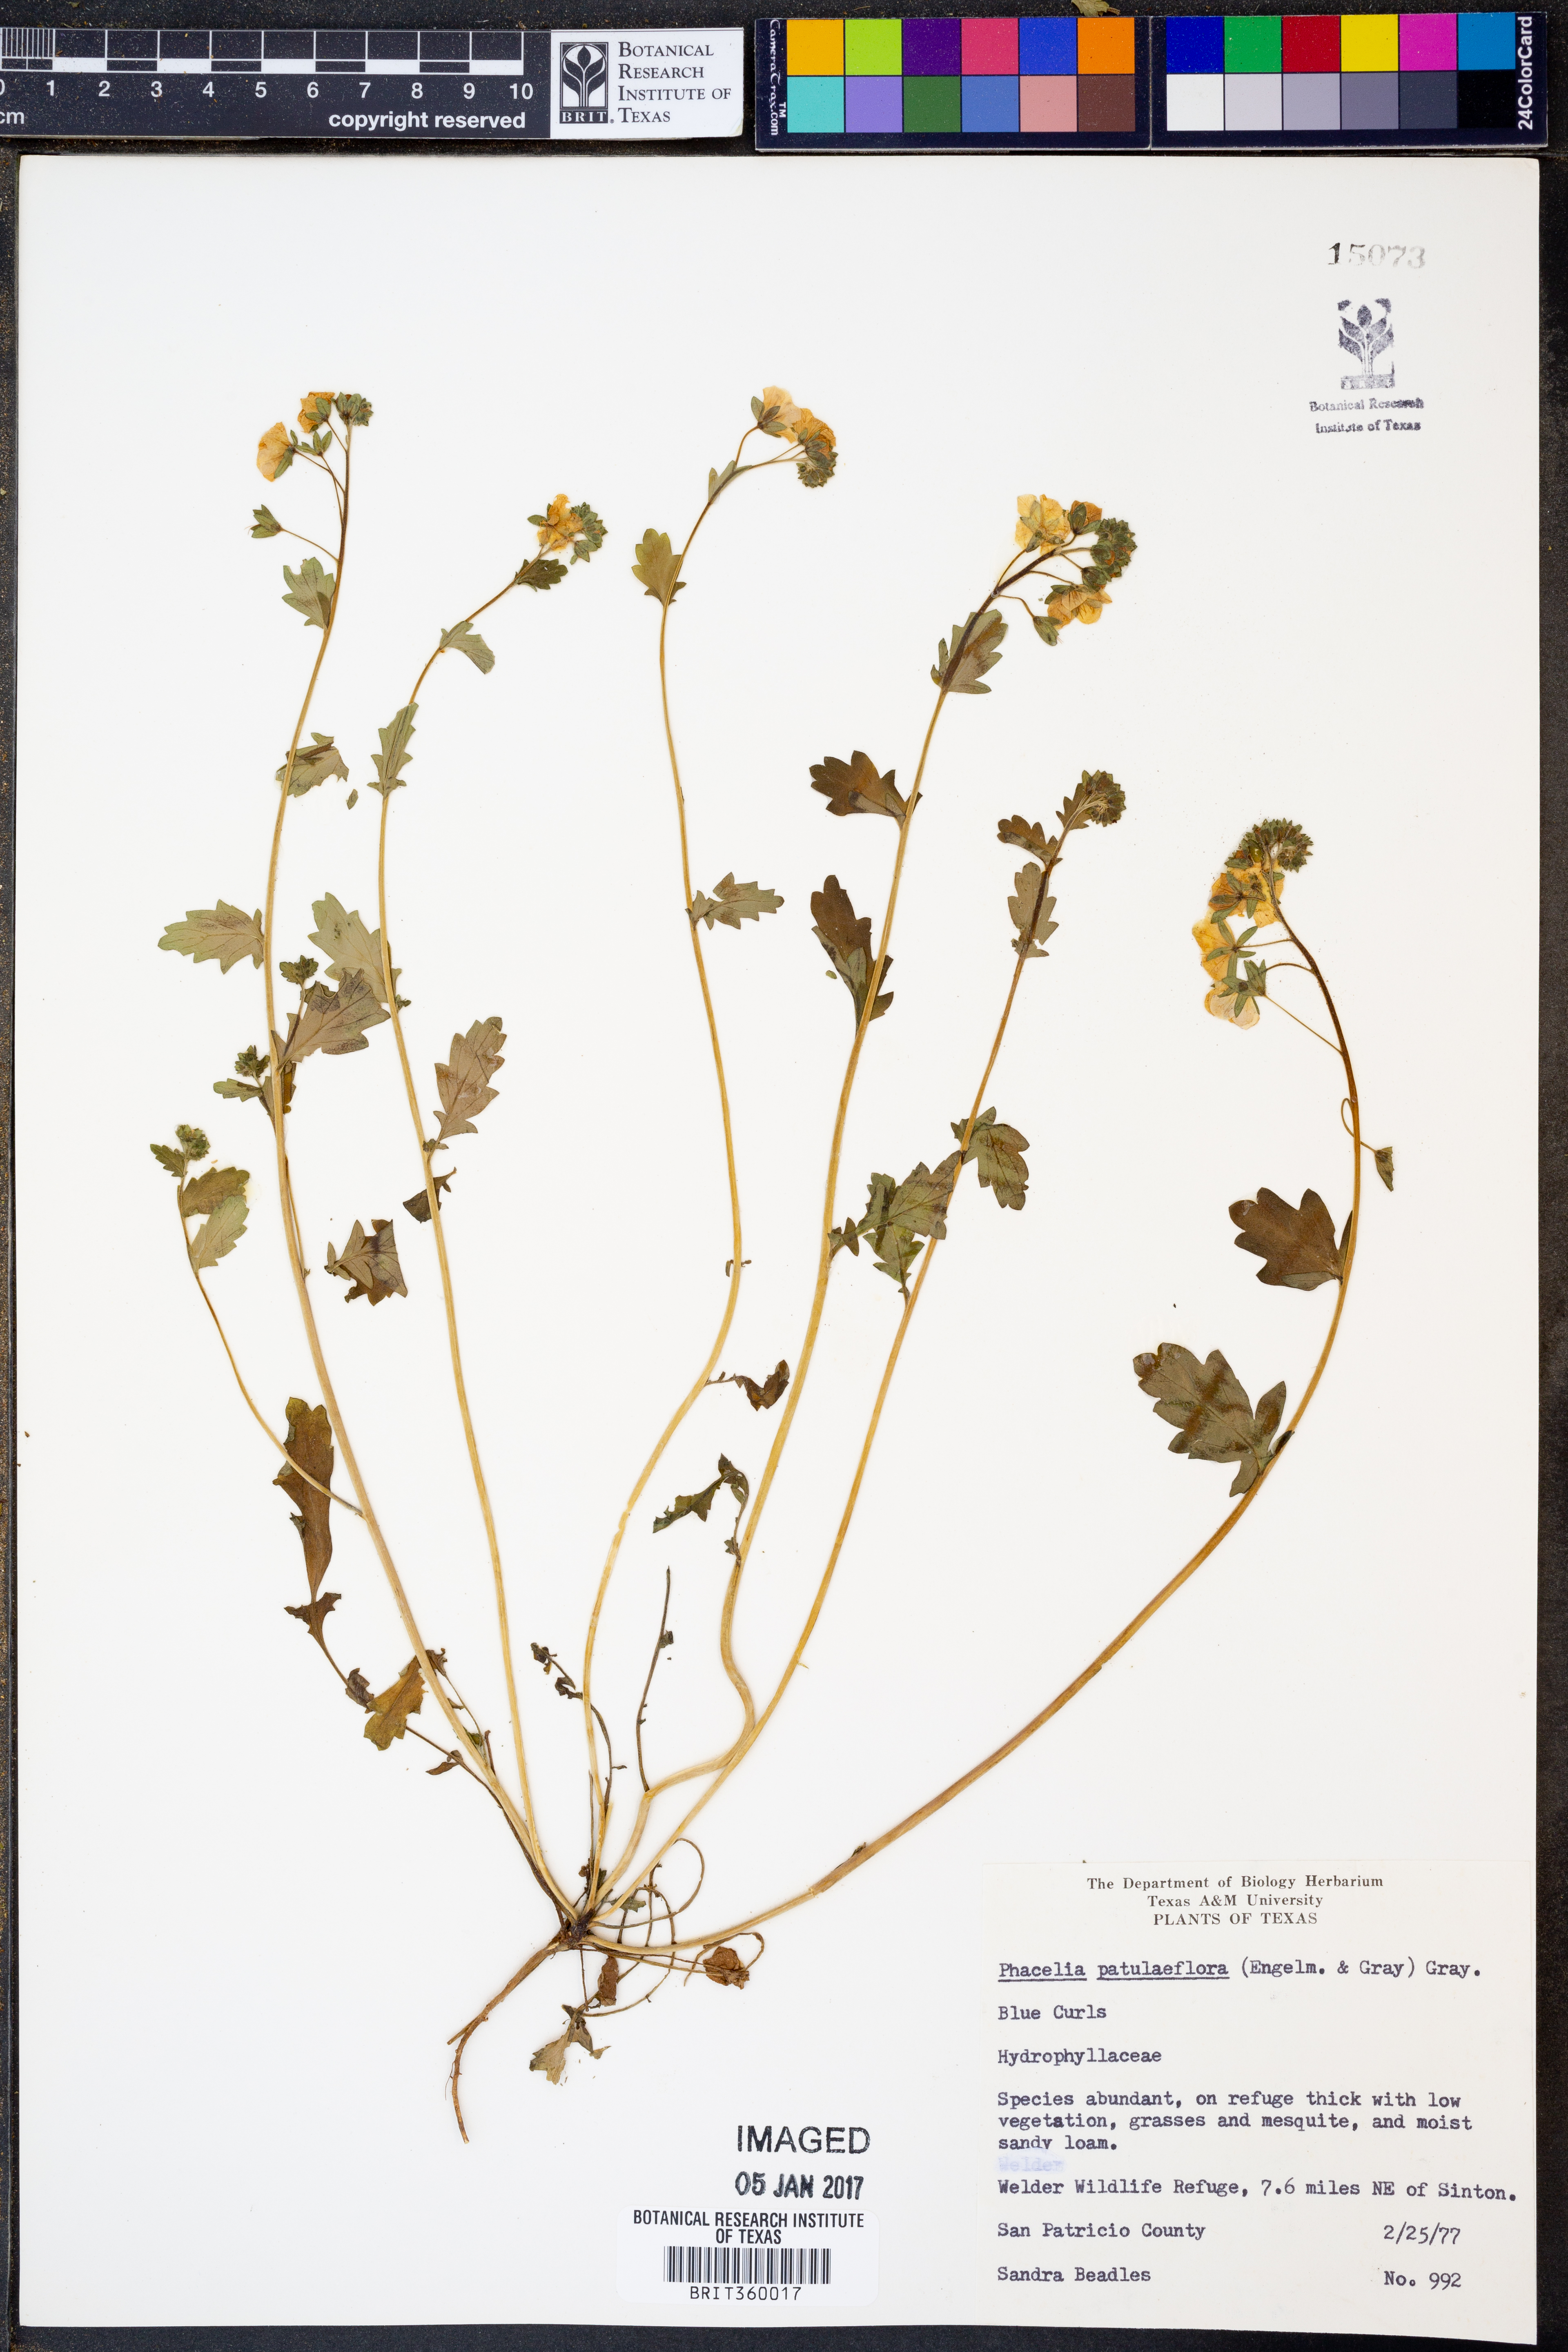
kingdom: Plantae
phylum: Tracheophyta
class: Magnoliopsida
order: Boraginales
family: Hydrophyllaceae
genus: Phacelia
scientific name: Phacelia patuliflora
